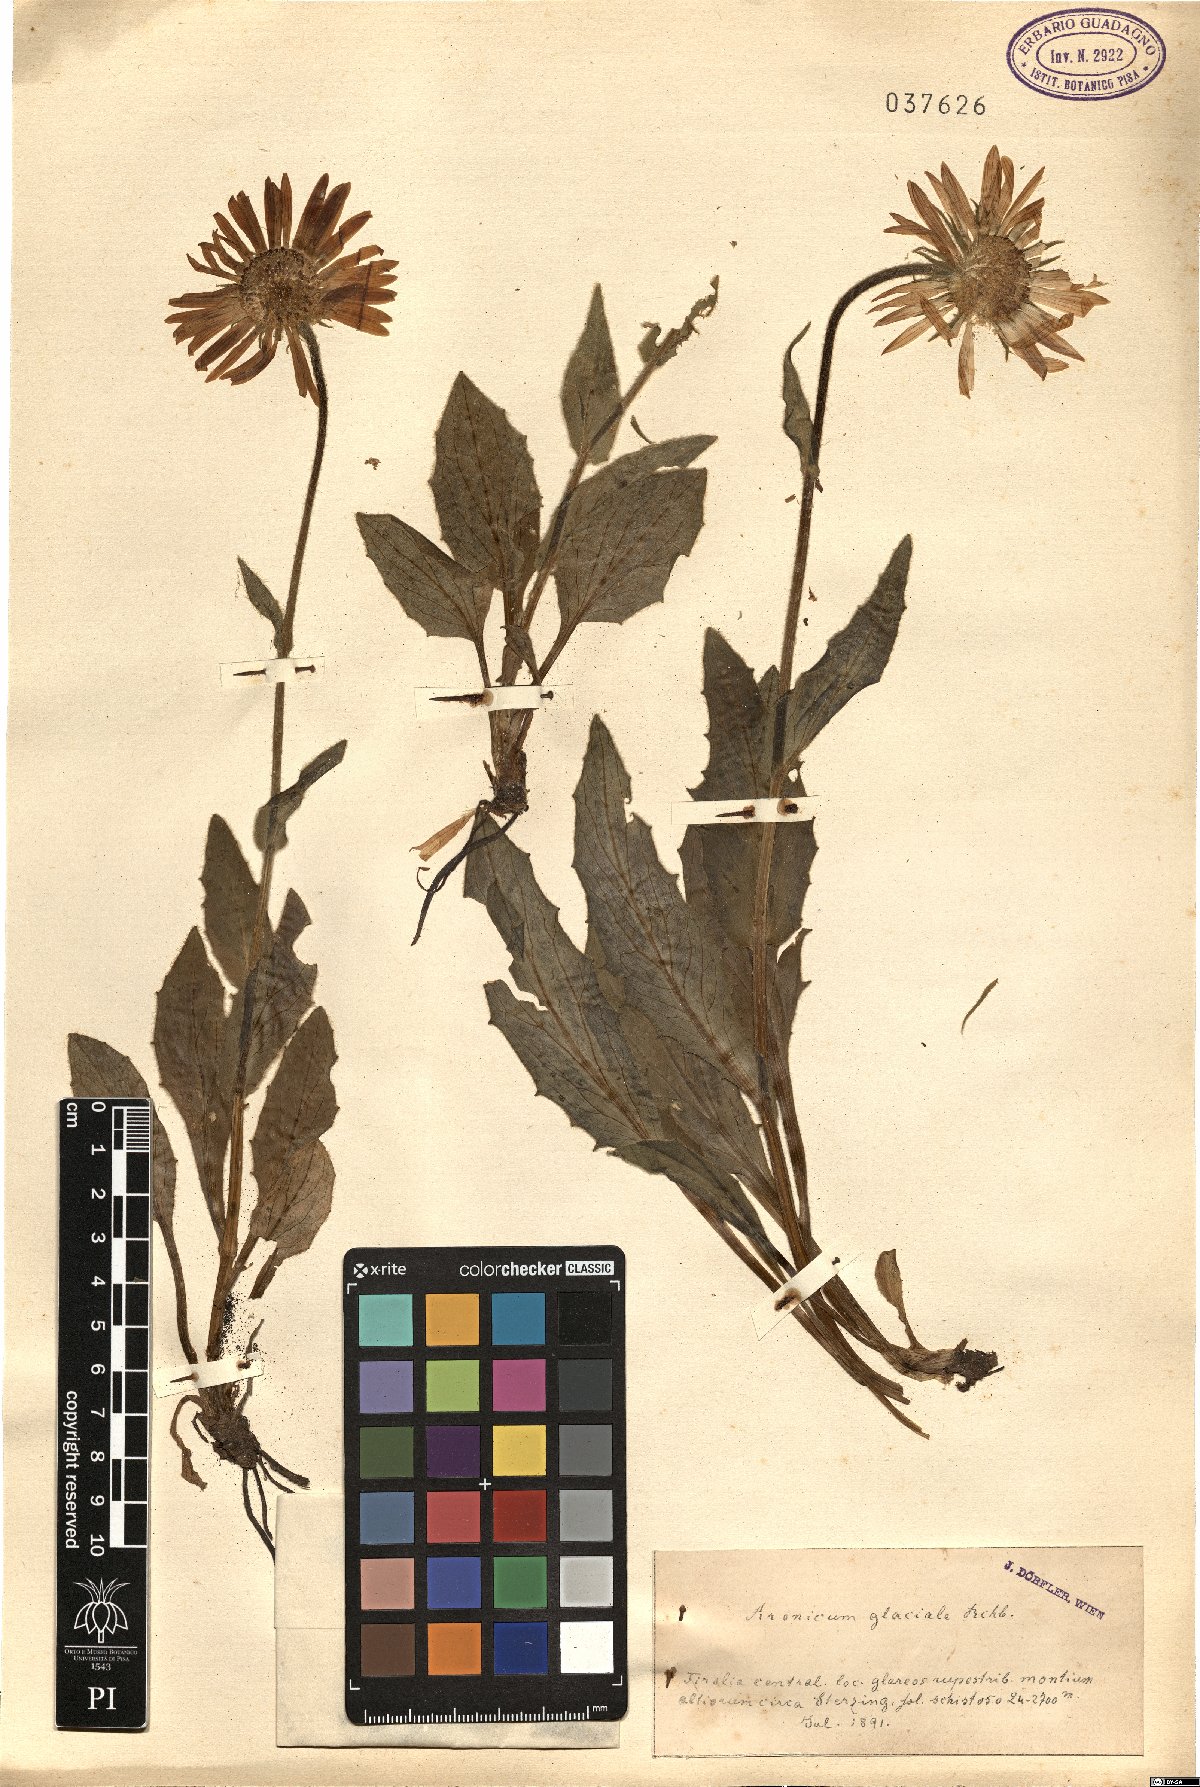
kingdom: Plantae
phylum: Tracheophyta
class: Magnoliopsida
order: Asterales
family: Asteraceae
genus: Doronicum
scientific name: Doronicum glaciale
